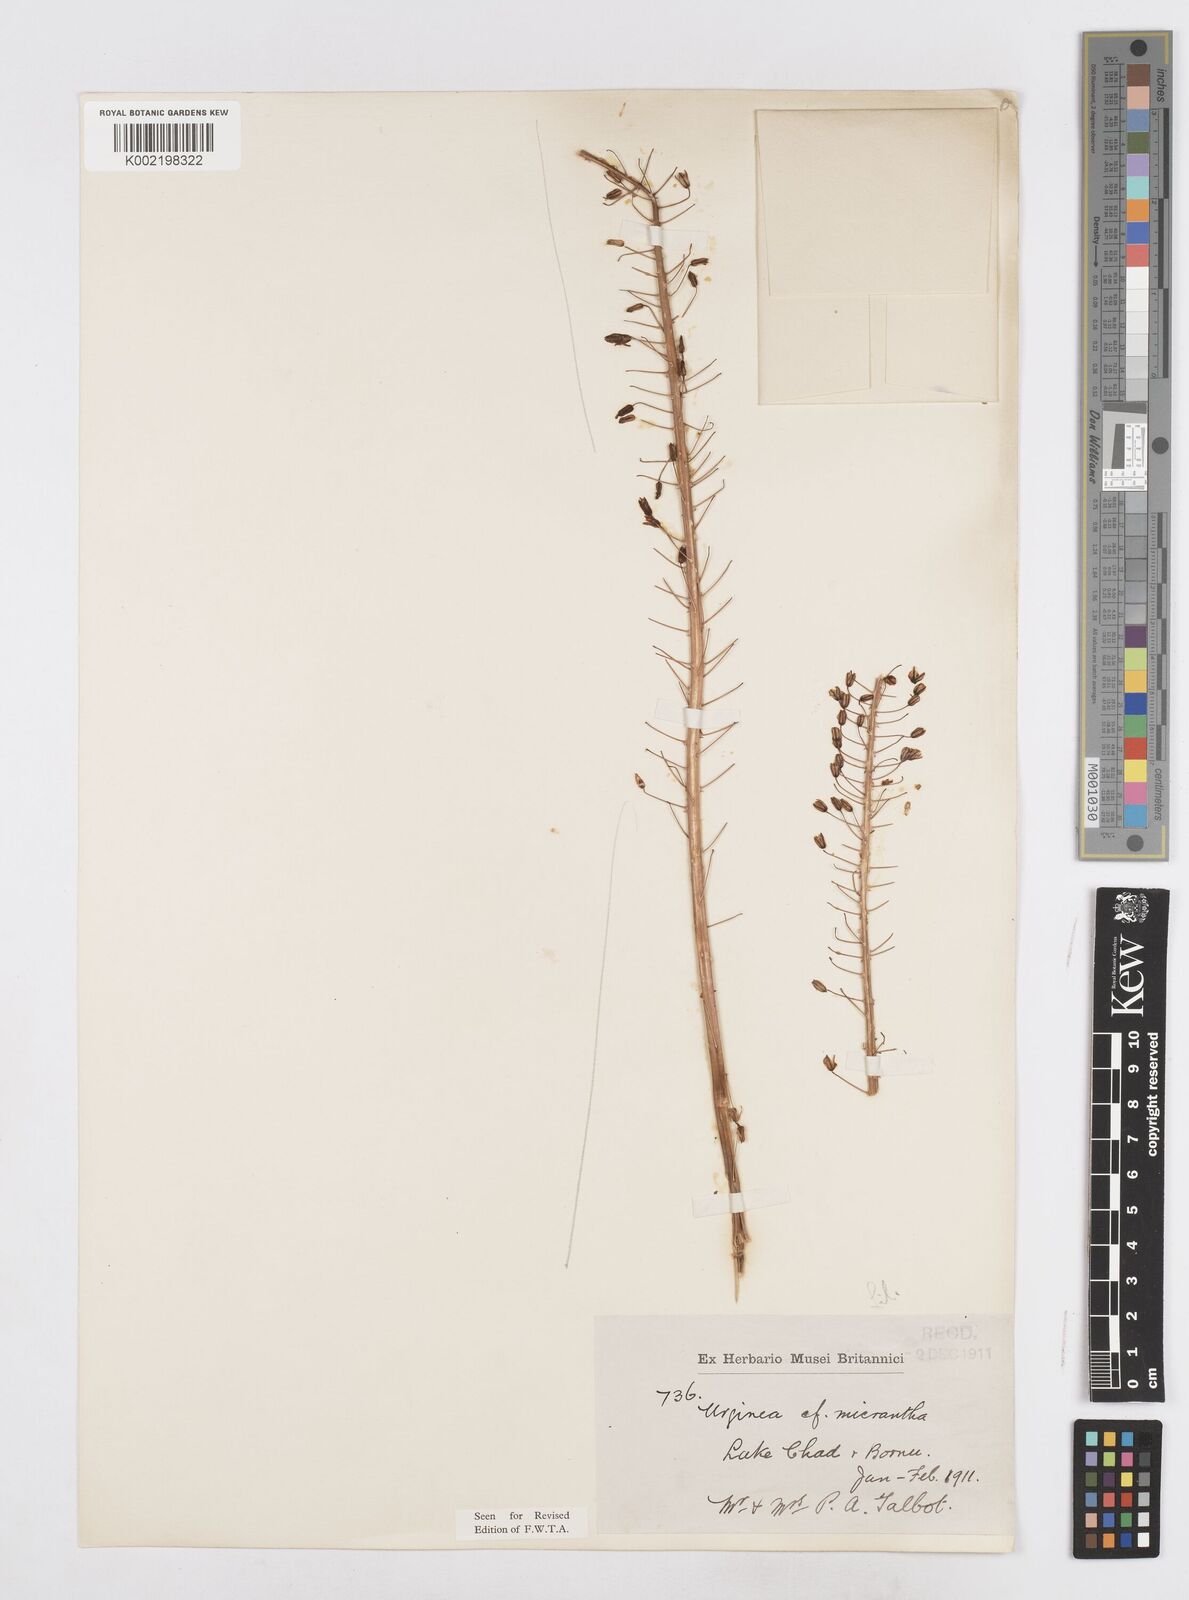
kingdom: Plantae
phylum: Tracheophyta
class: Liliopsida
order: Asparagales
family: Asparagaceae
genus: Drimia
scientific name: Drimia altissima
